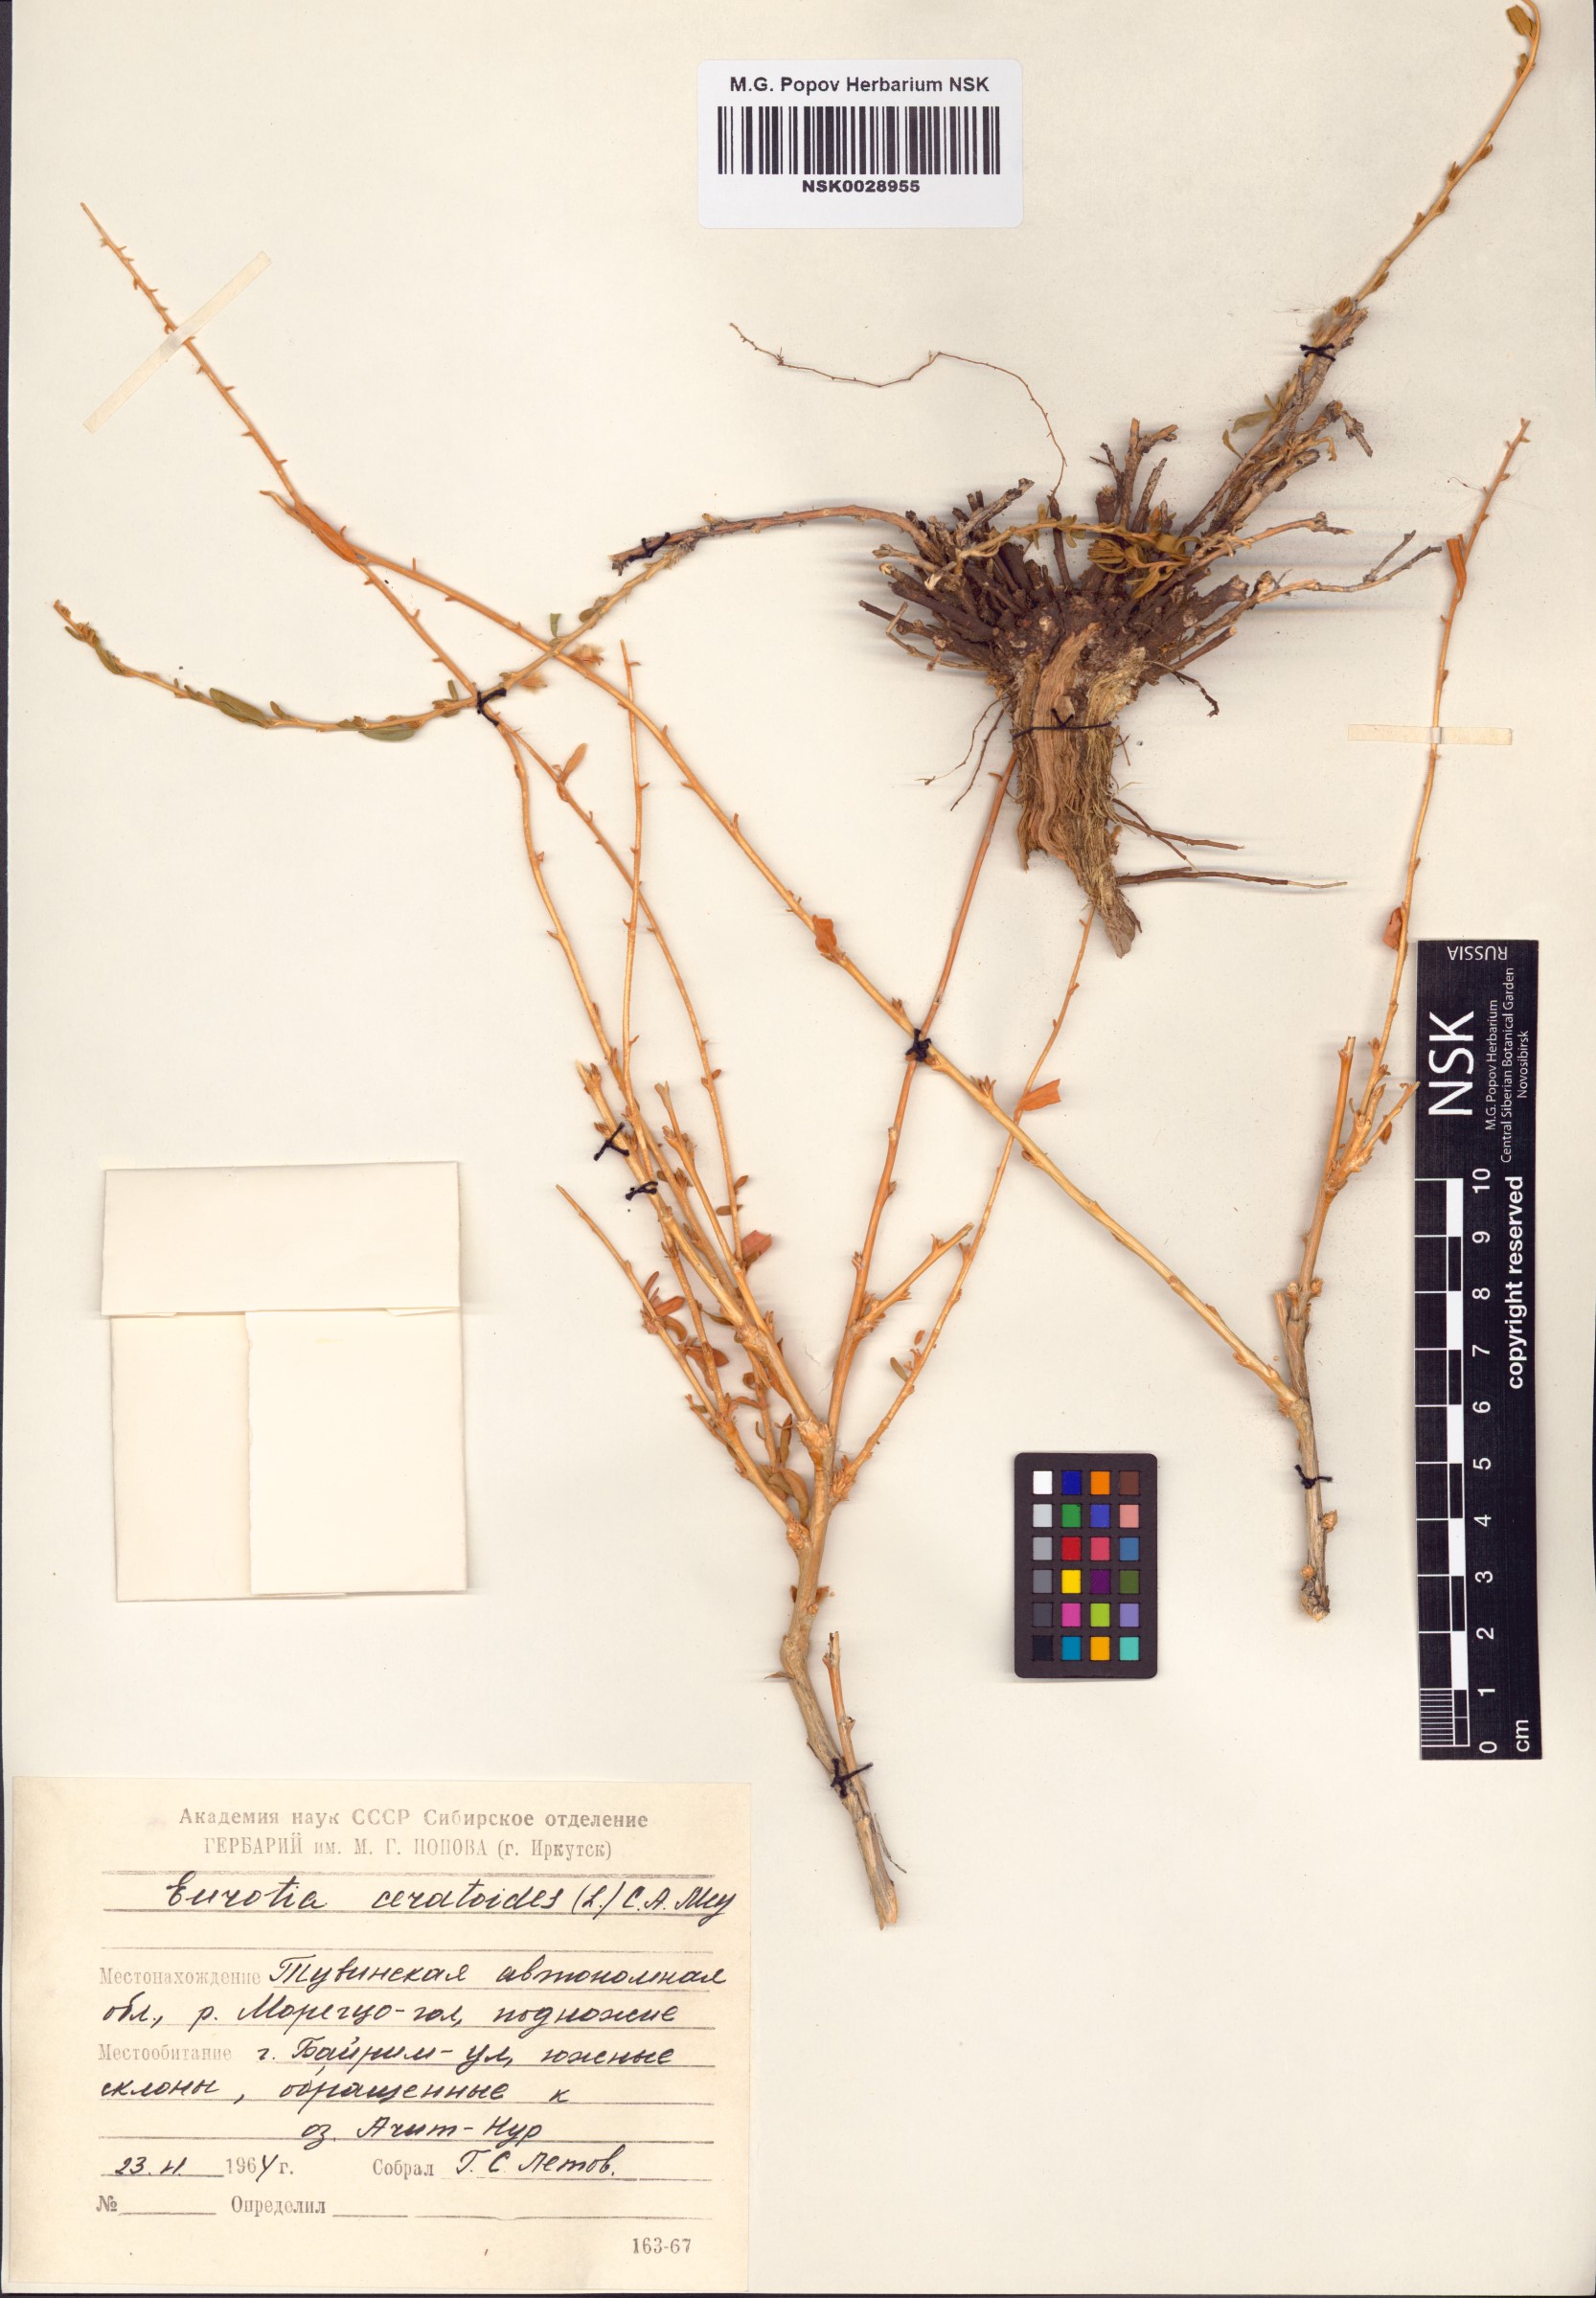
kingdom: Plantae
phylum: Tracheophyta
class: Magnoliopsida
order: Caryophyllales
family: Amaranthaceae
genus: Krascheninnikovia
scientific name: Krascheninnikovia ceratoides
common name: Pamirian winterfat
